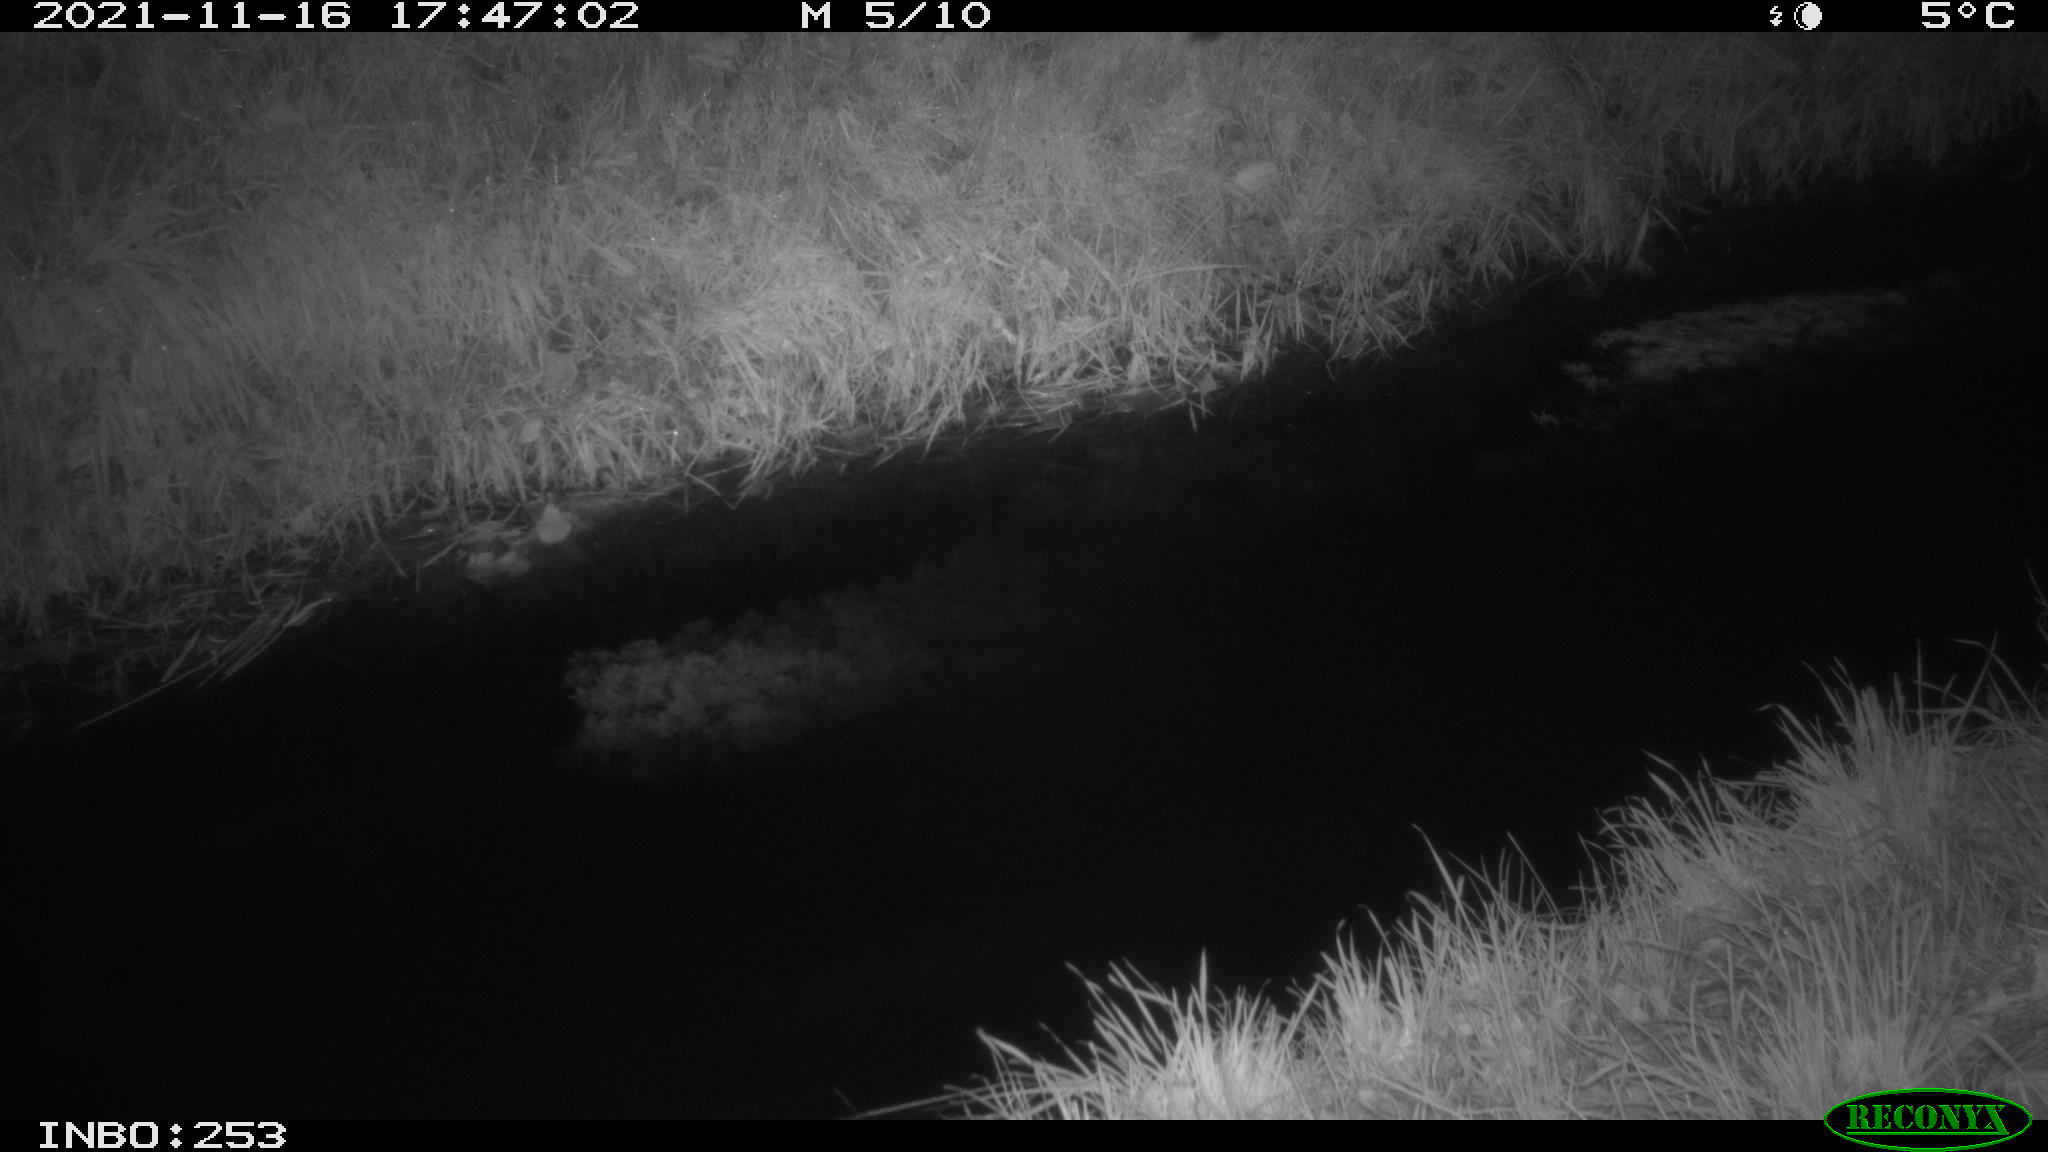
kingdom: Animalia
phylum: Chordata
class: Mammalia
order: Carnivora
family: Canidae
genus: Vulpes
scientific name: Vulpes vulpes
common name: Red fox
